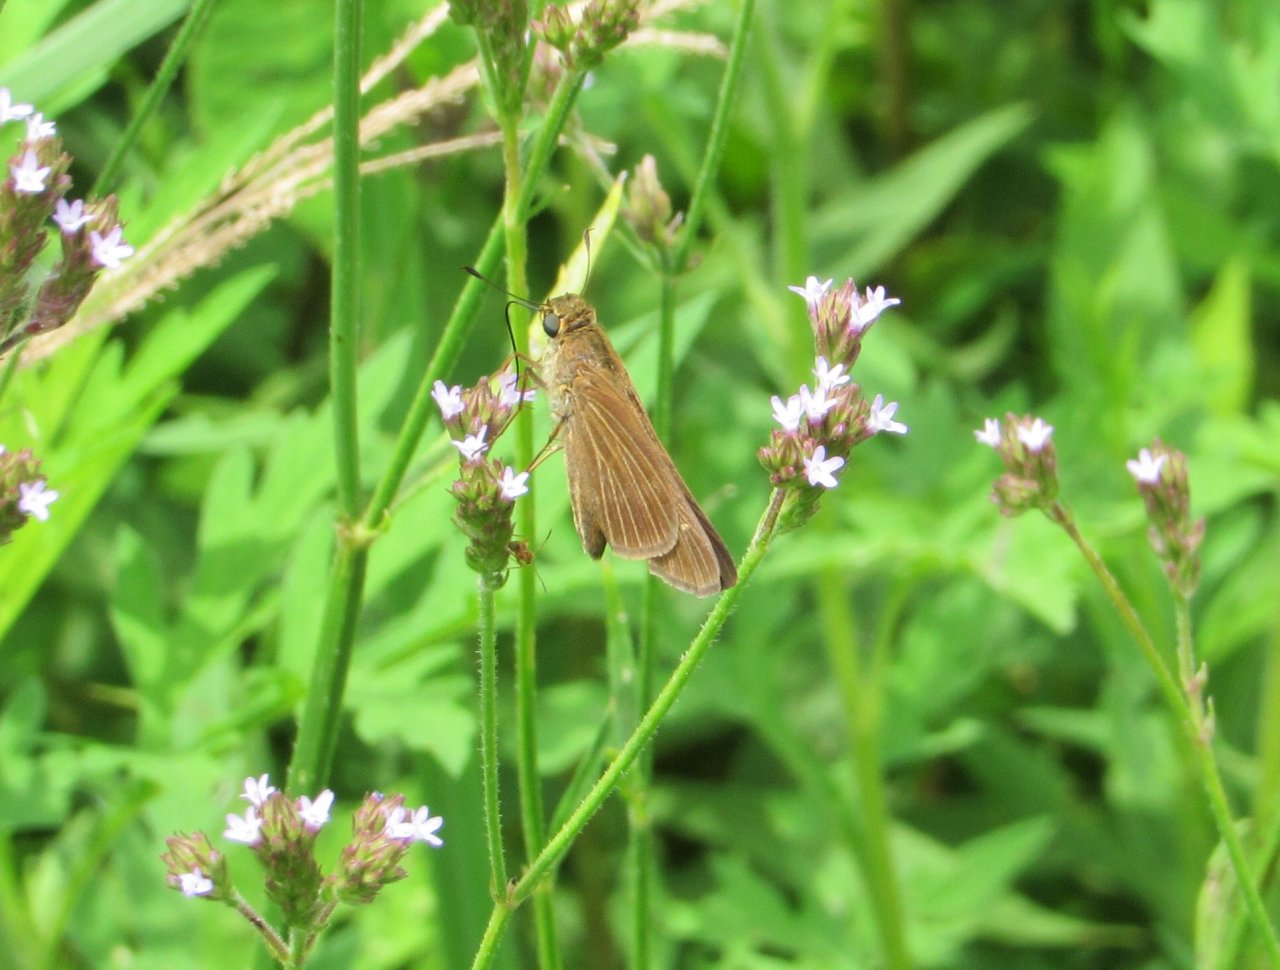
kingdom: Animalia
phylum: Arthropoda
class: Insecta
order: Lepidoptera
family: Hesperiidae
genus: Panoquina
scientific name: Panoquina ocola
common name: Ocola Skipper
